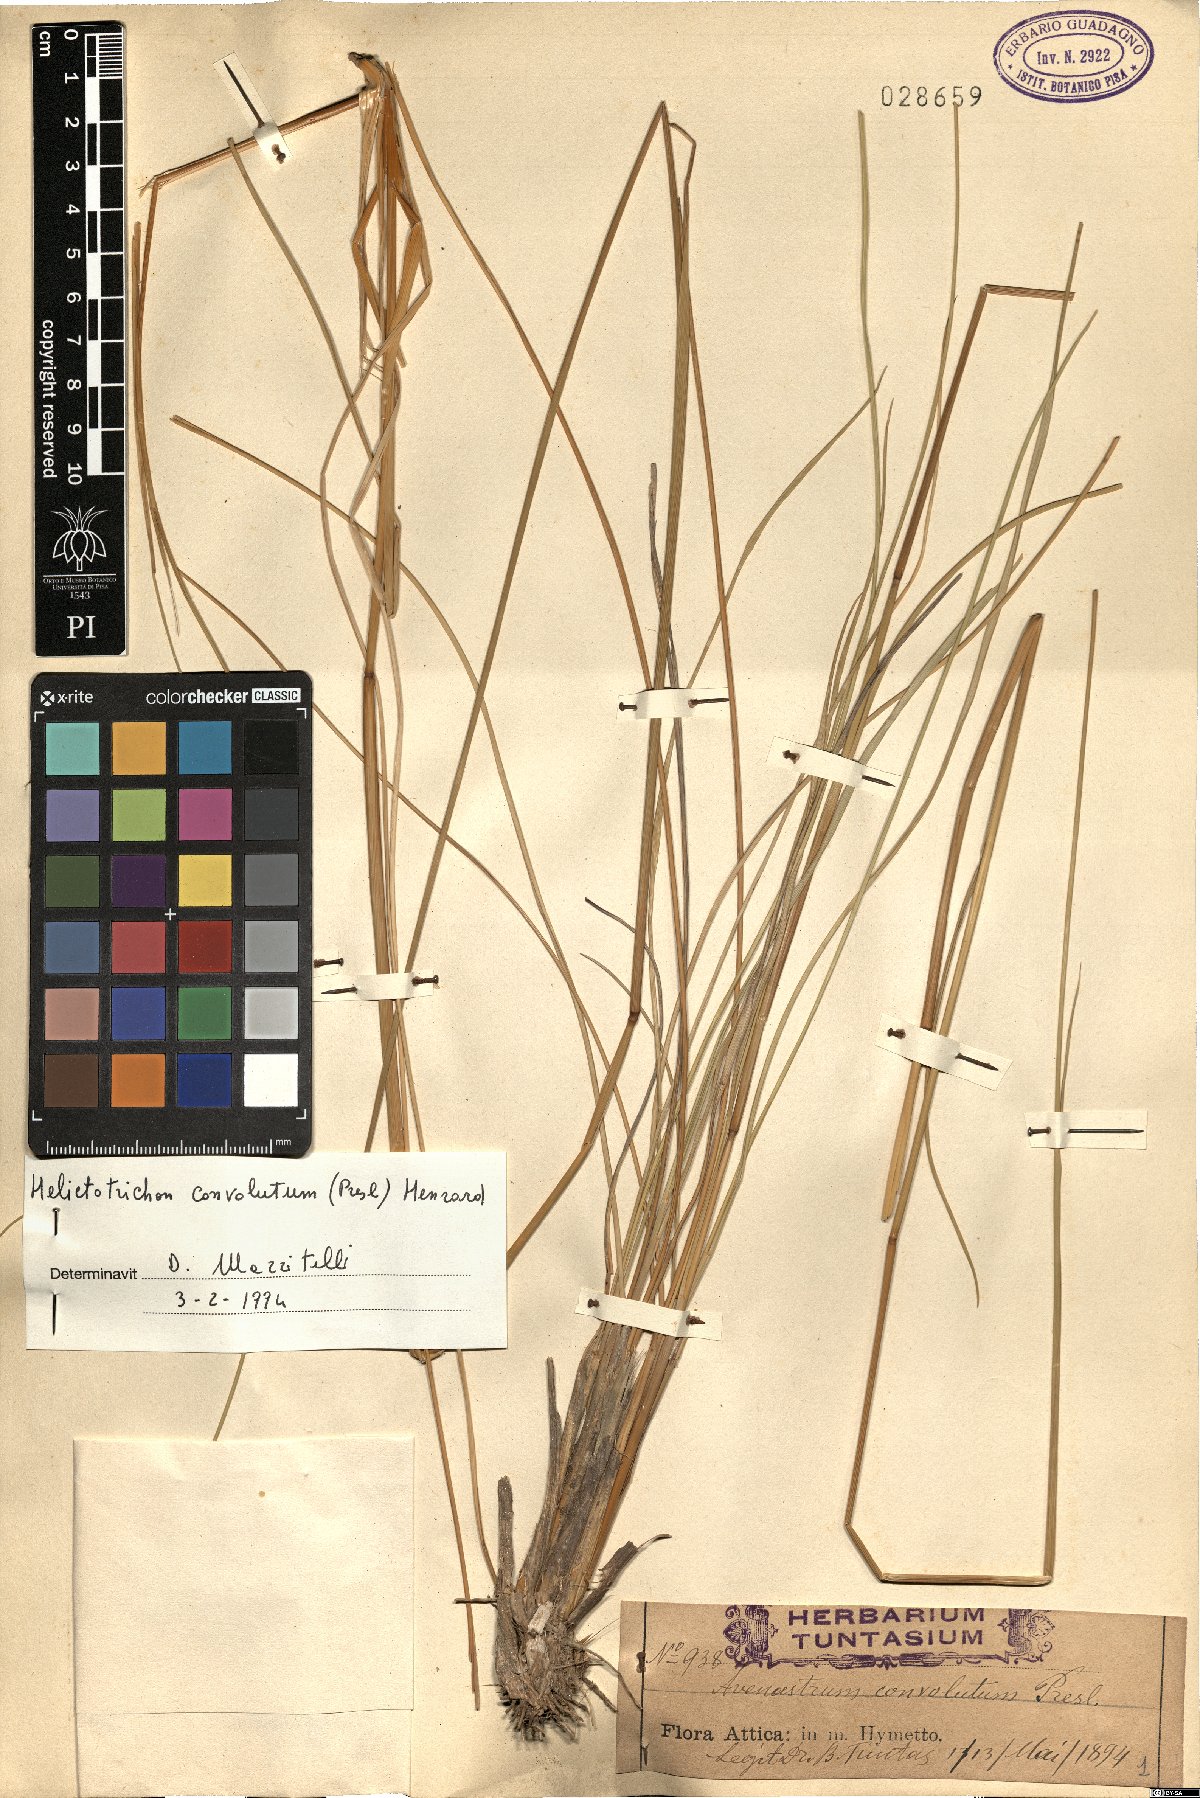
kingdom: Plantae
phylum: Tracheophyta
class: Liliopsida
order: Poales
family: Poaceae
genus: Helictotrichon
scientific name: Helictotrichon convolutum
